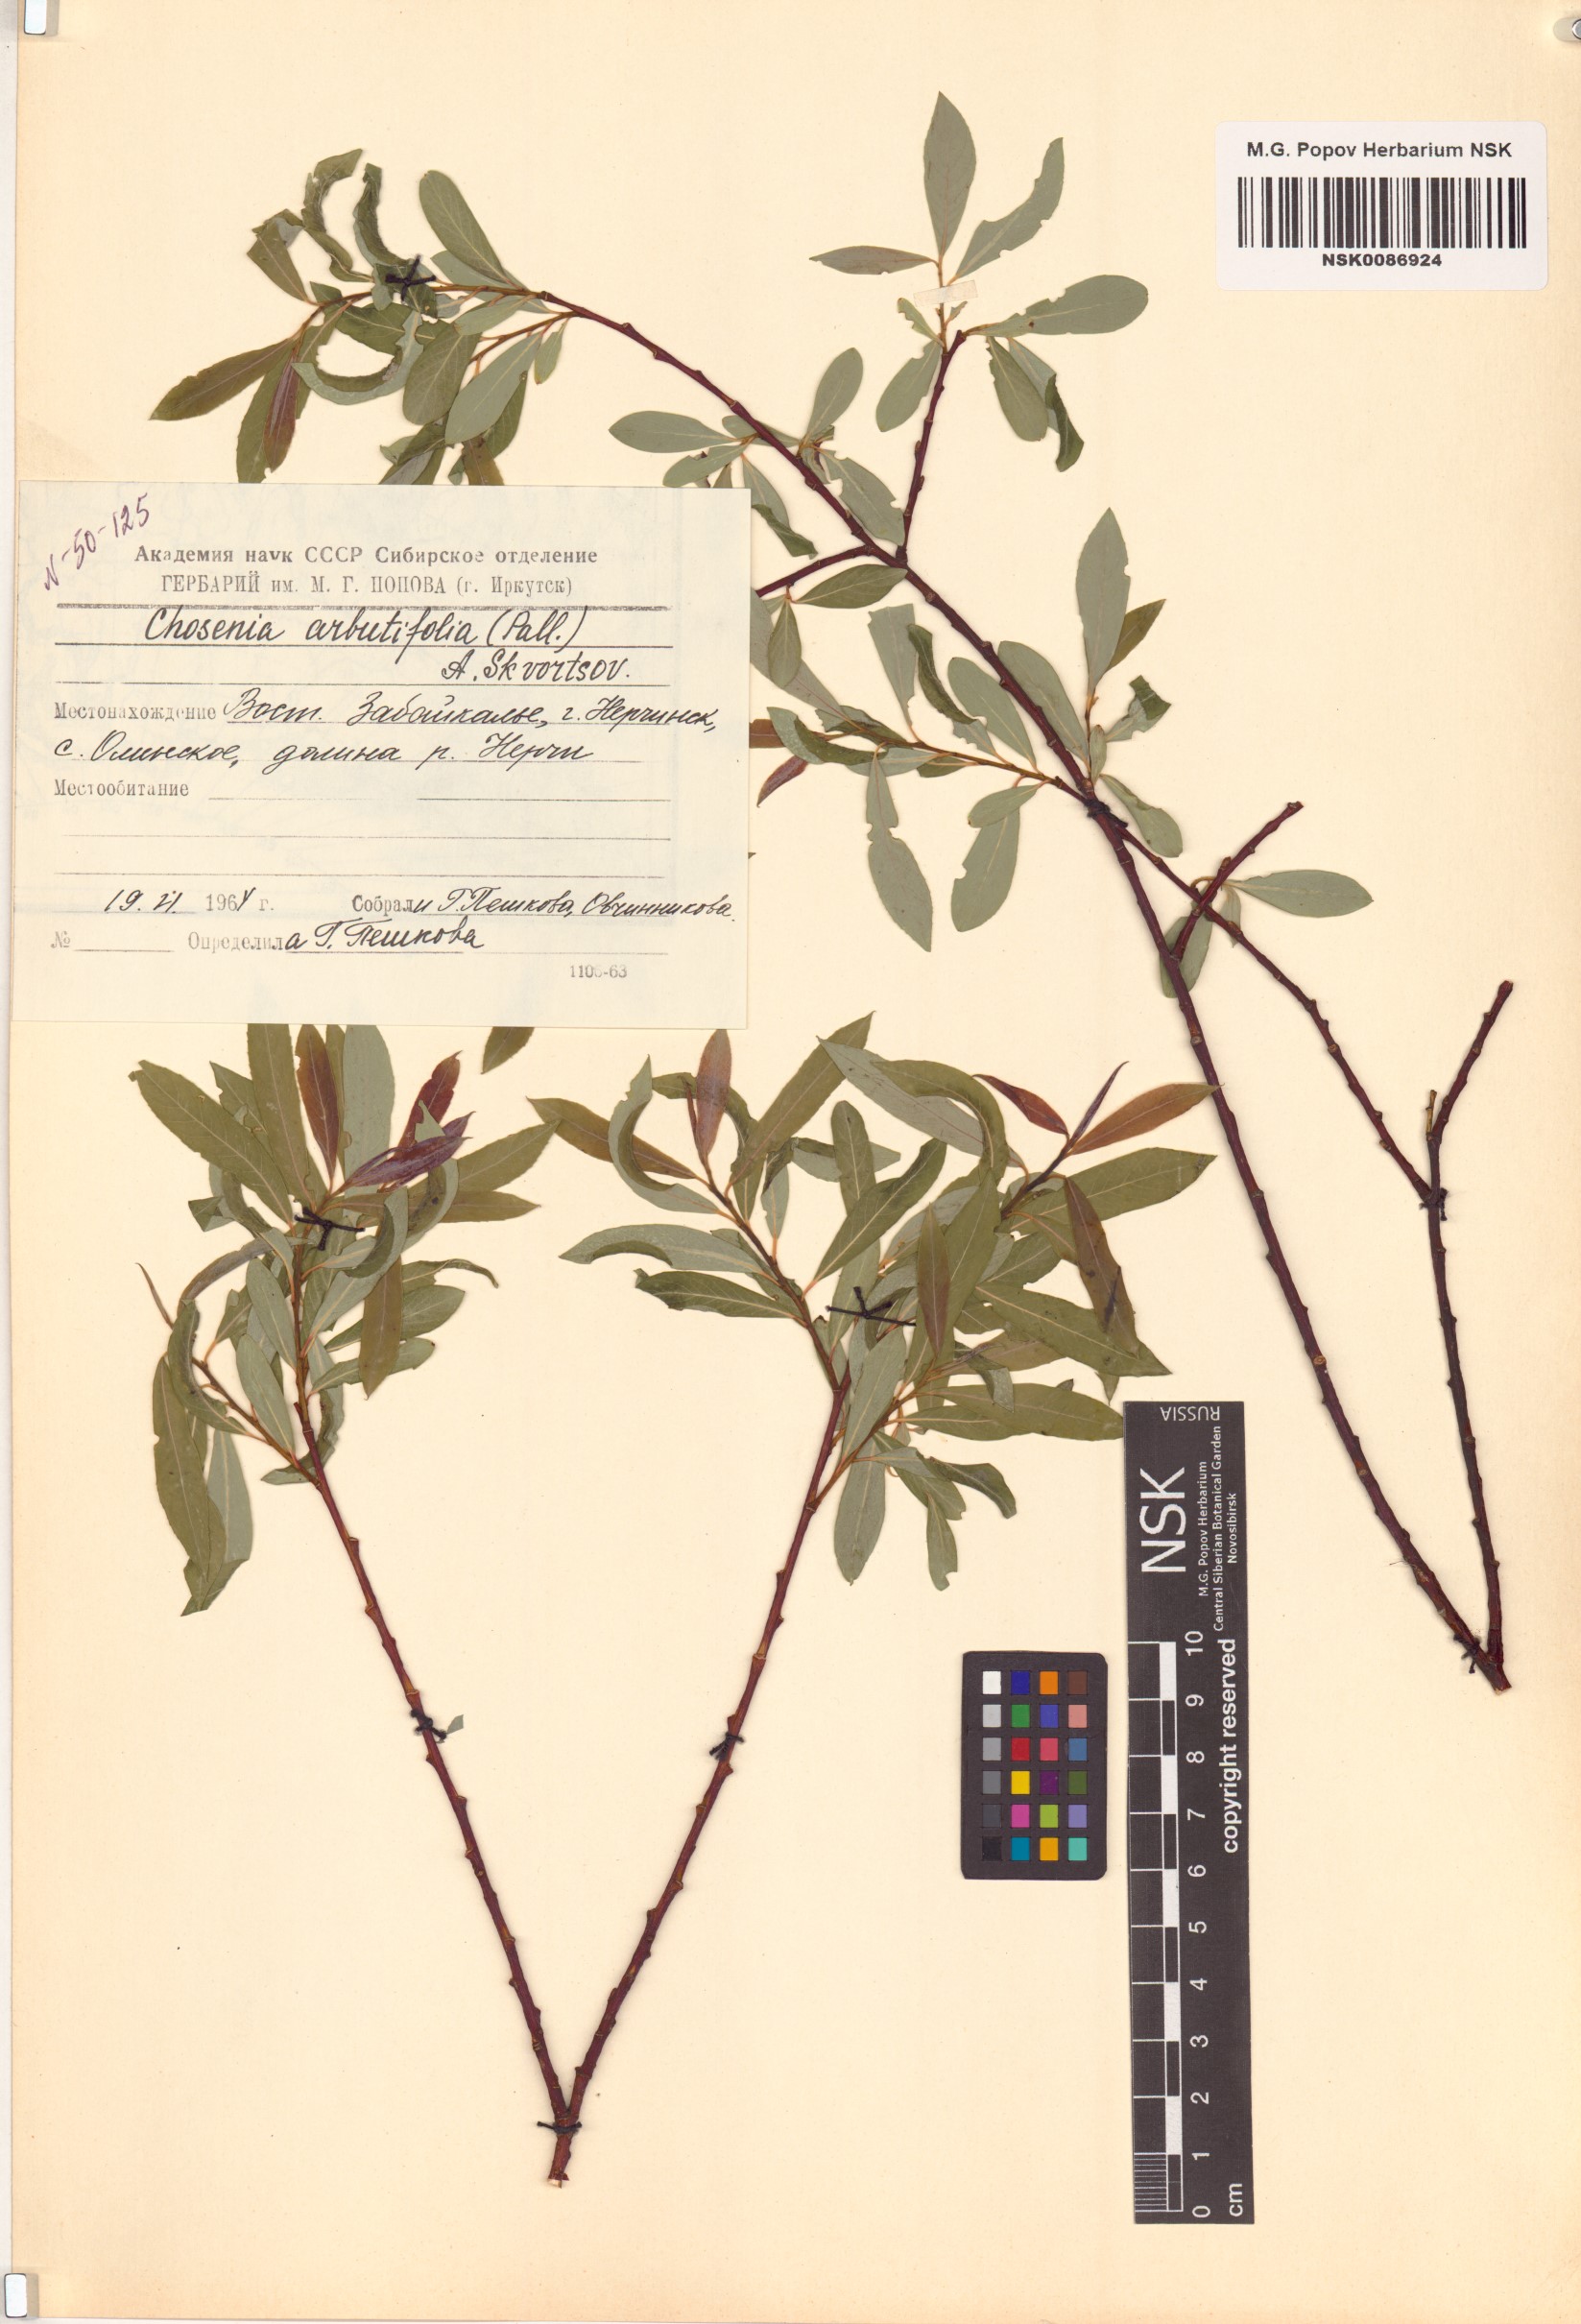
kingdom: Plantae
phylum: Tracheophyta
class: Magnoliopsida
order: Malpighiales
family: Salicaceae
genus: Chosenia
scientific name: Chosenia arbutifolia
